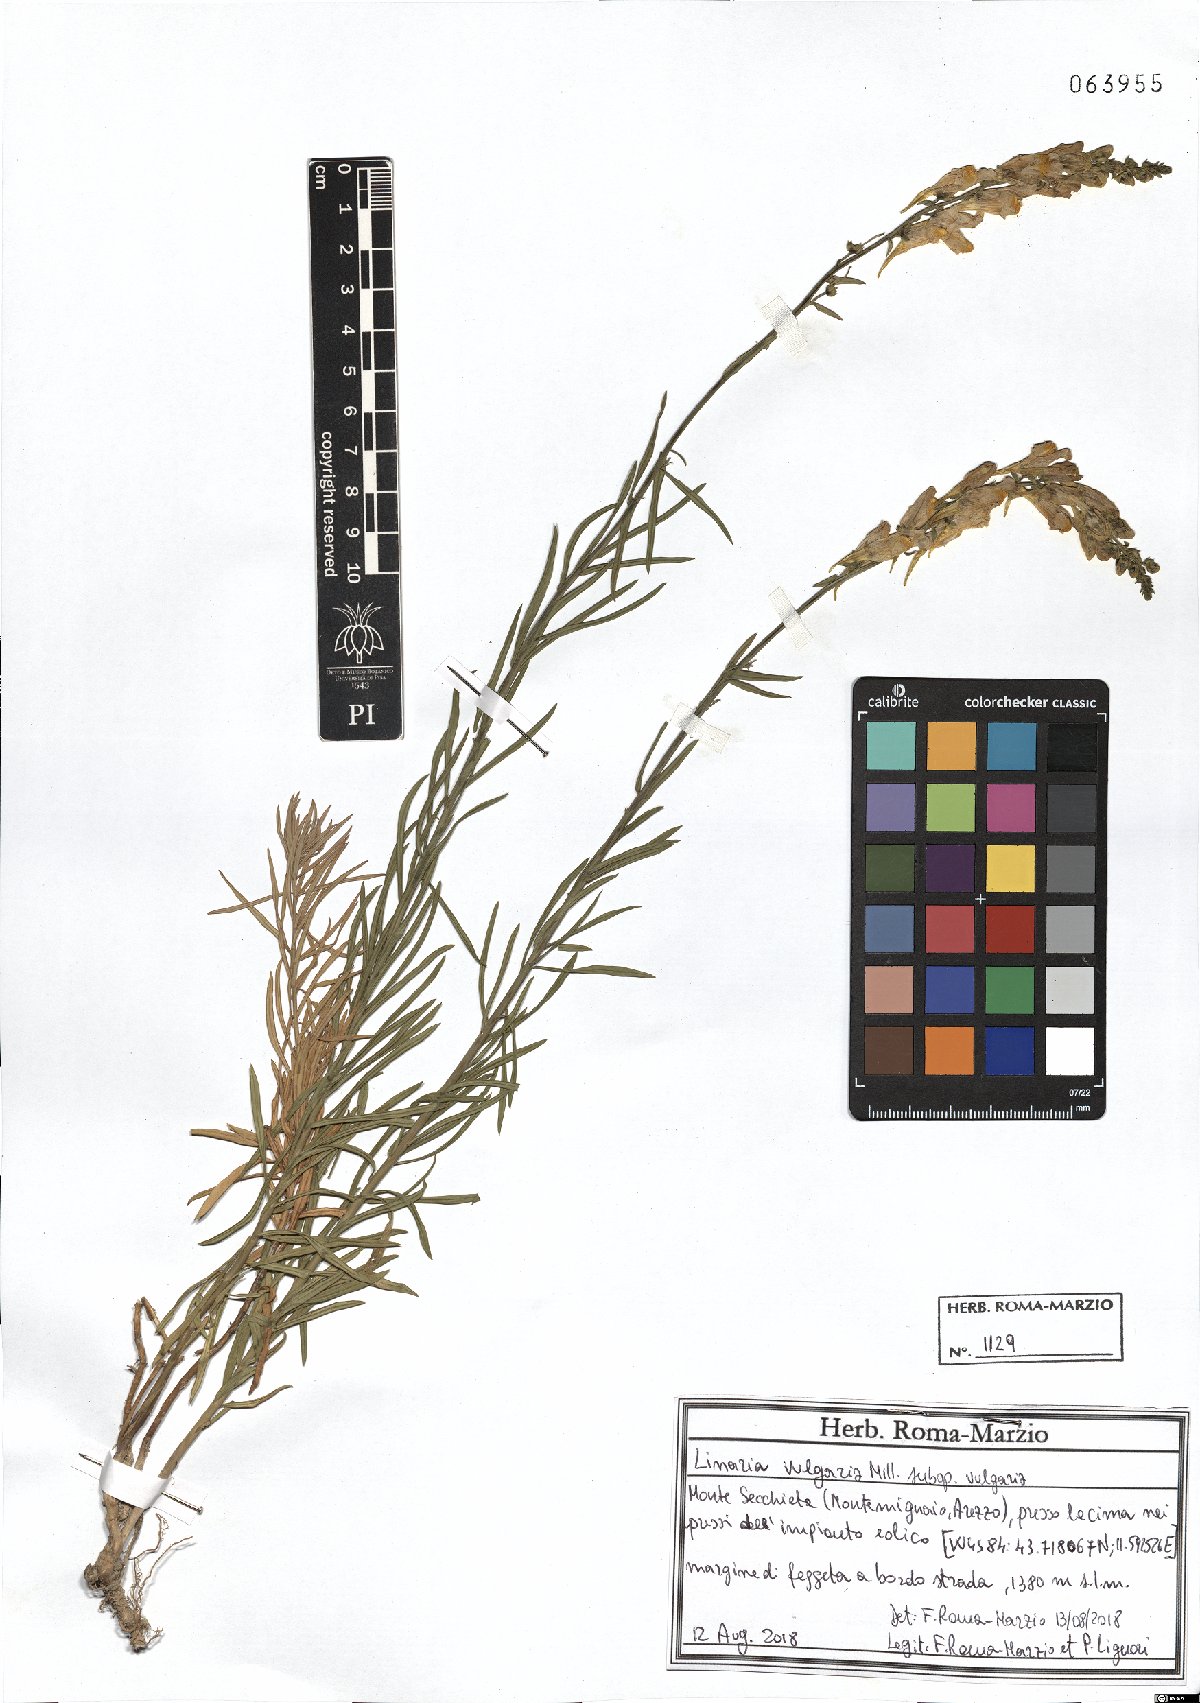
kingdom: Plantae
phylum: Tracheophyta
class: Magnoliopsida
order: Lamiales
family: Plantaginaceae
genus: Linaria
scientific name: Linaria vulgaris
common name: Butter and eggs
